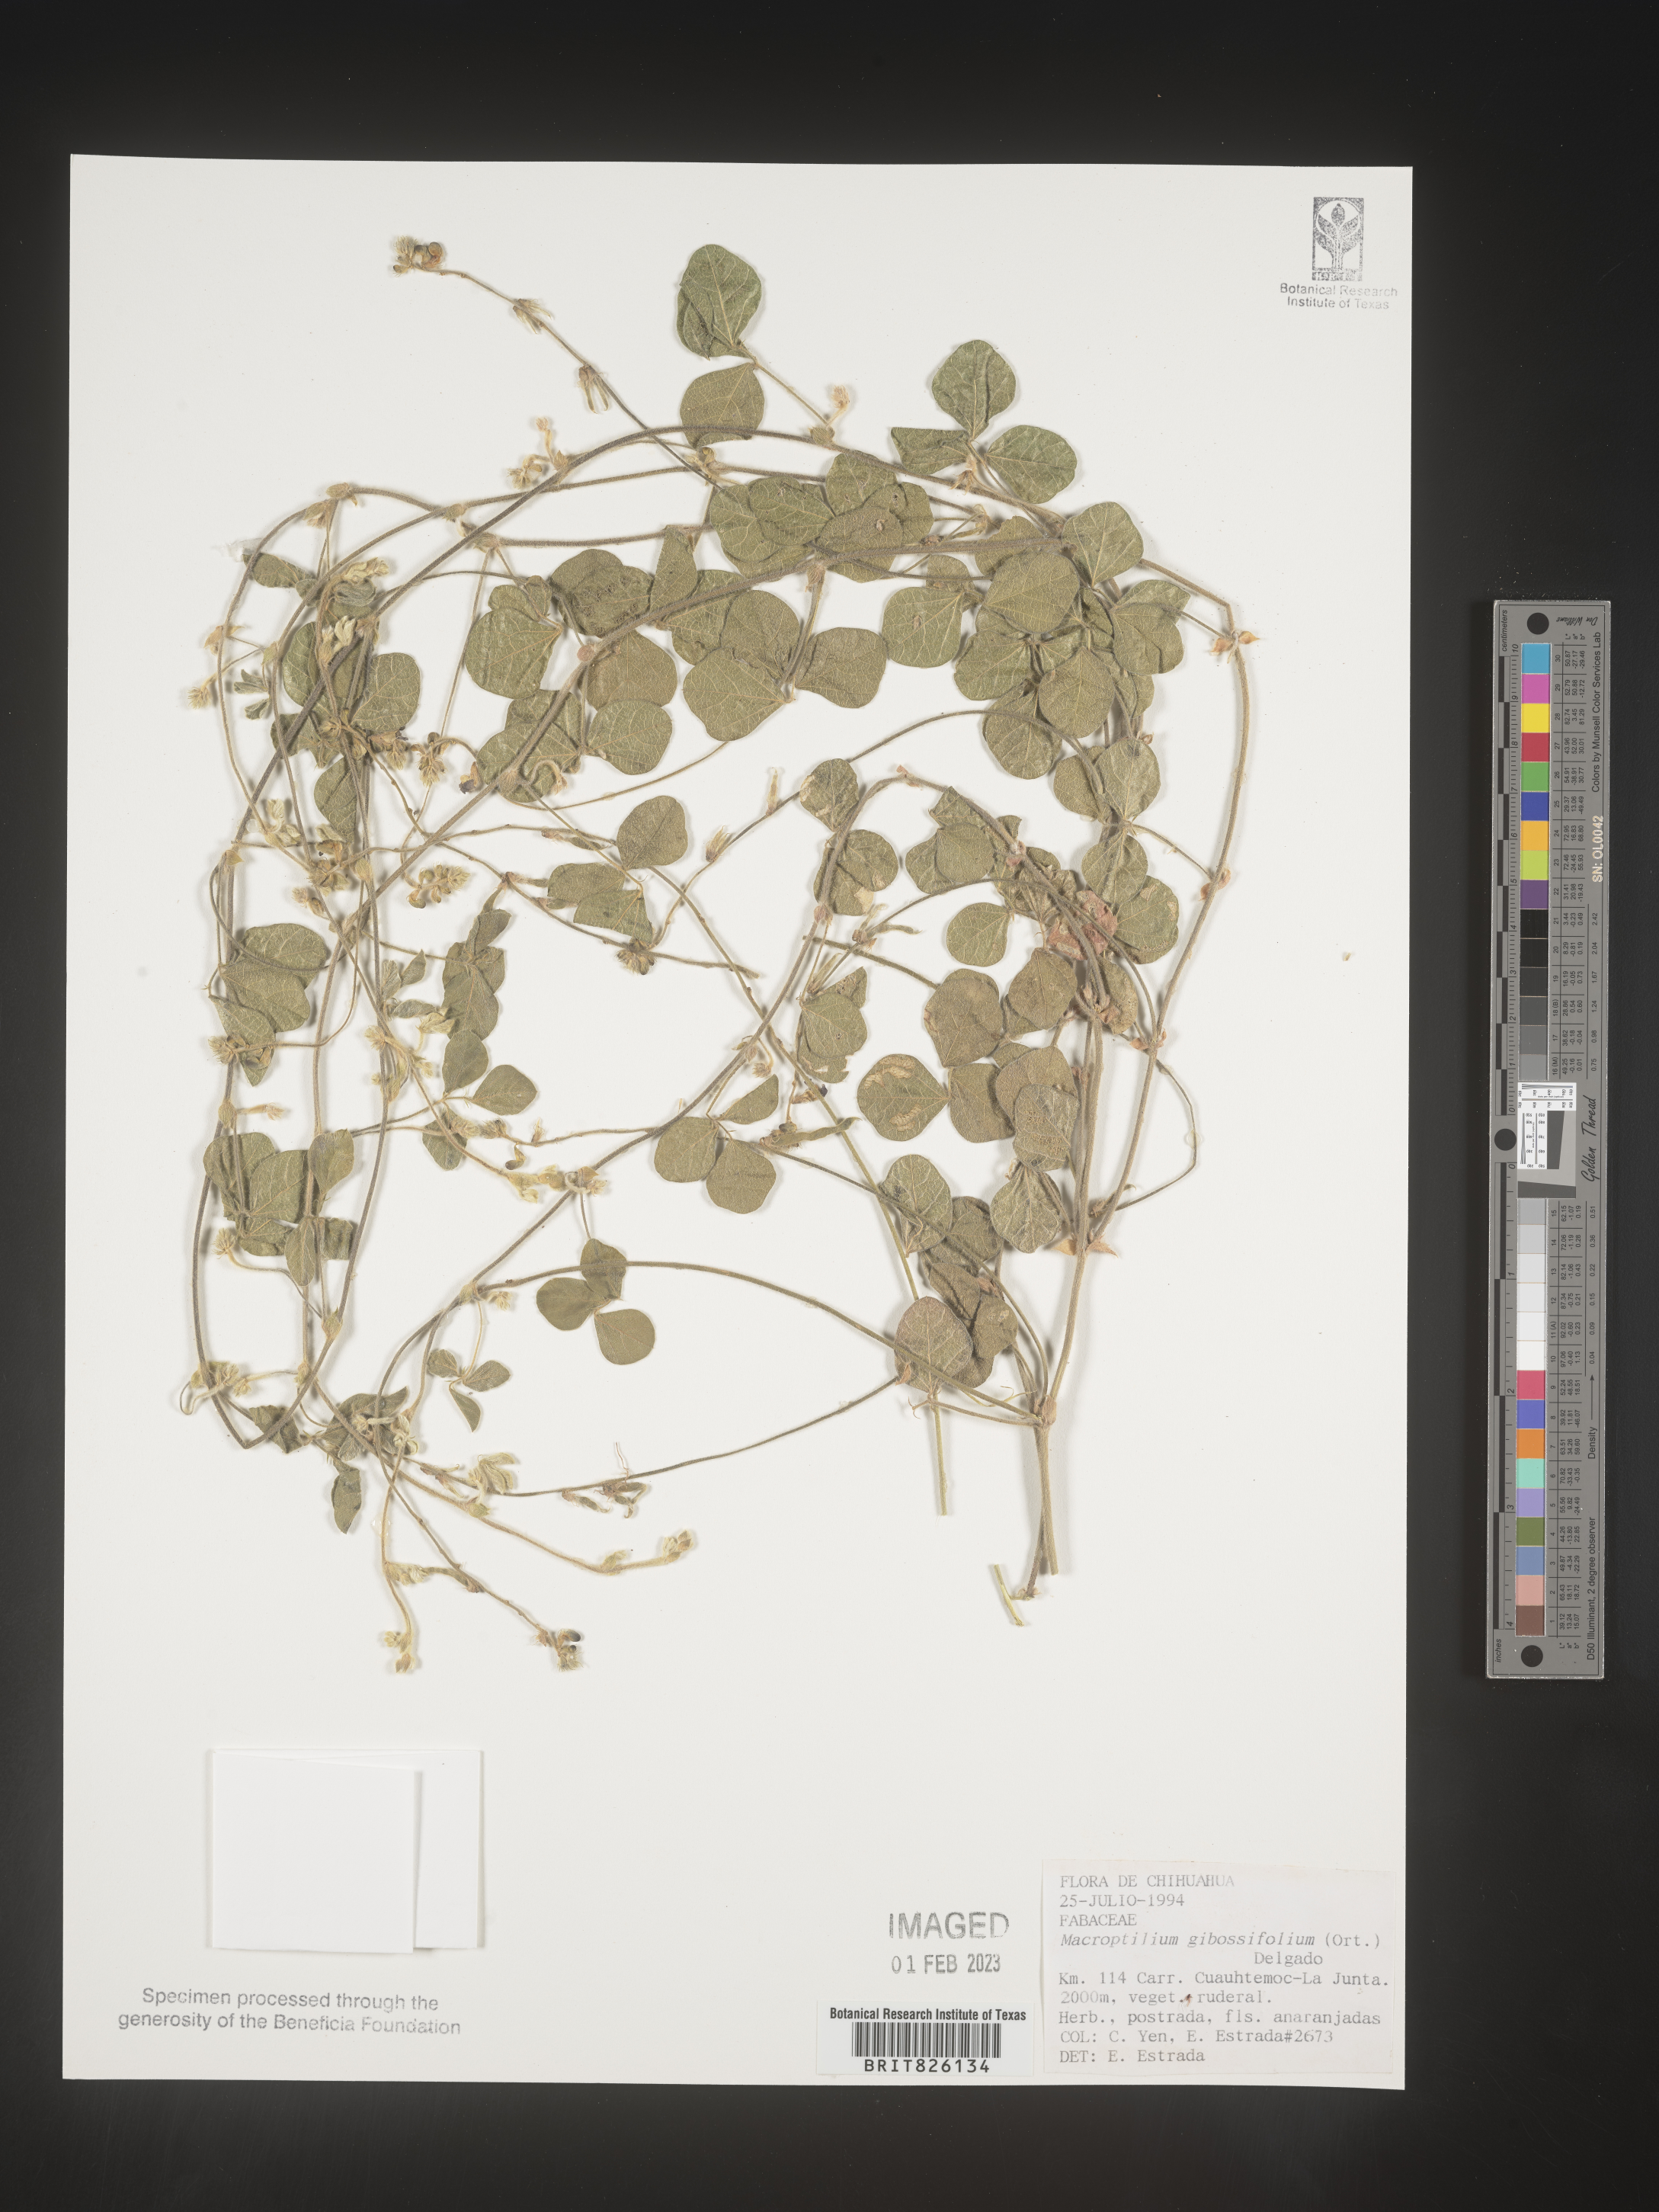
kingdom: Plantae
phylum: Tracheophyta
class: Magnoliopsida
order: Fabales
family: Fabaceae
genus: Macroptilium
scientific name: Macroptilium
